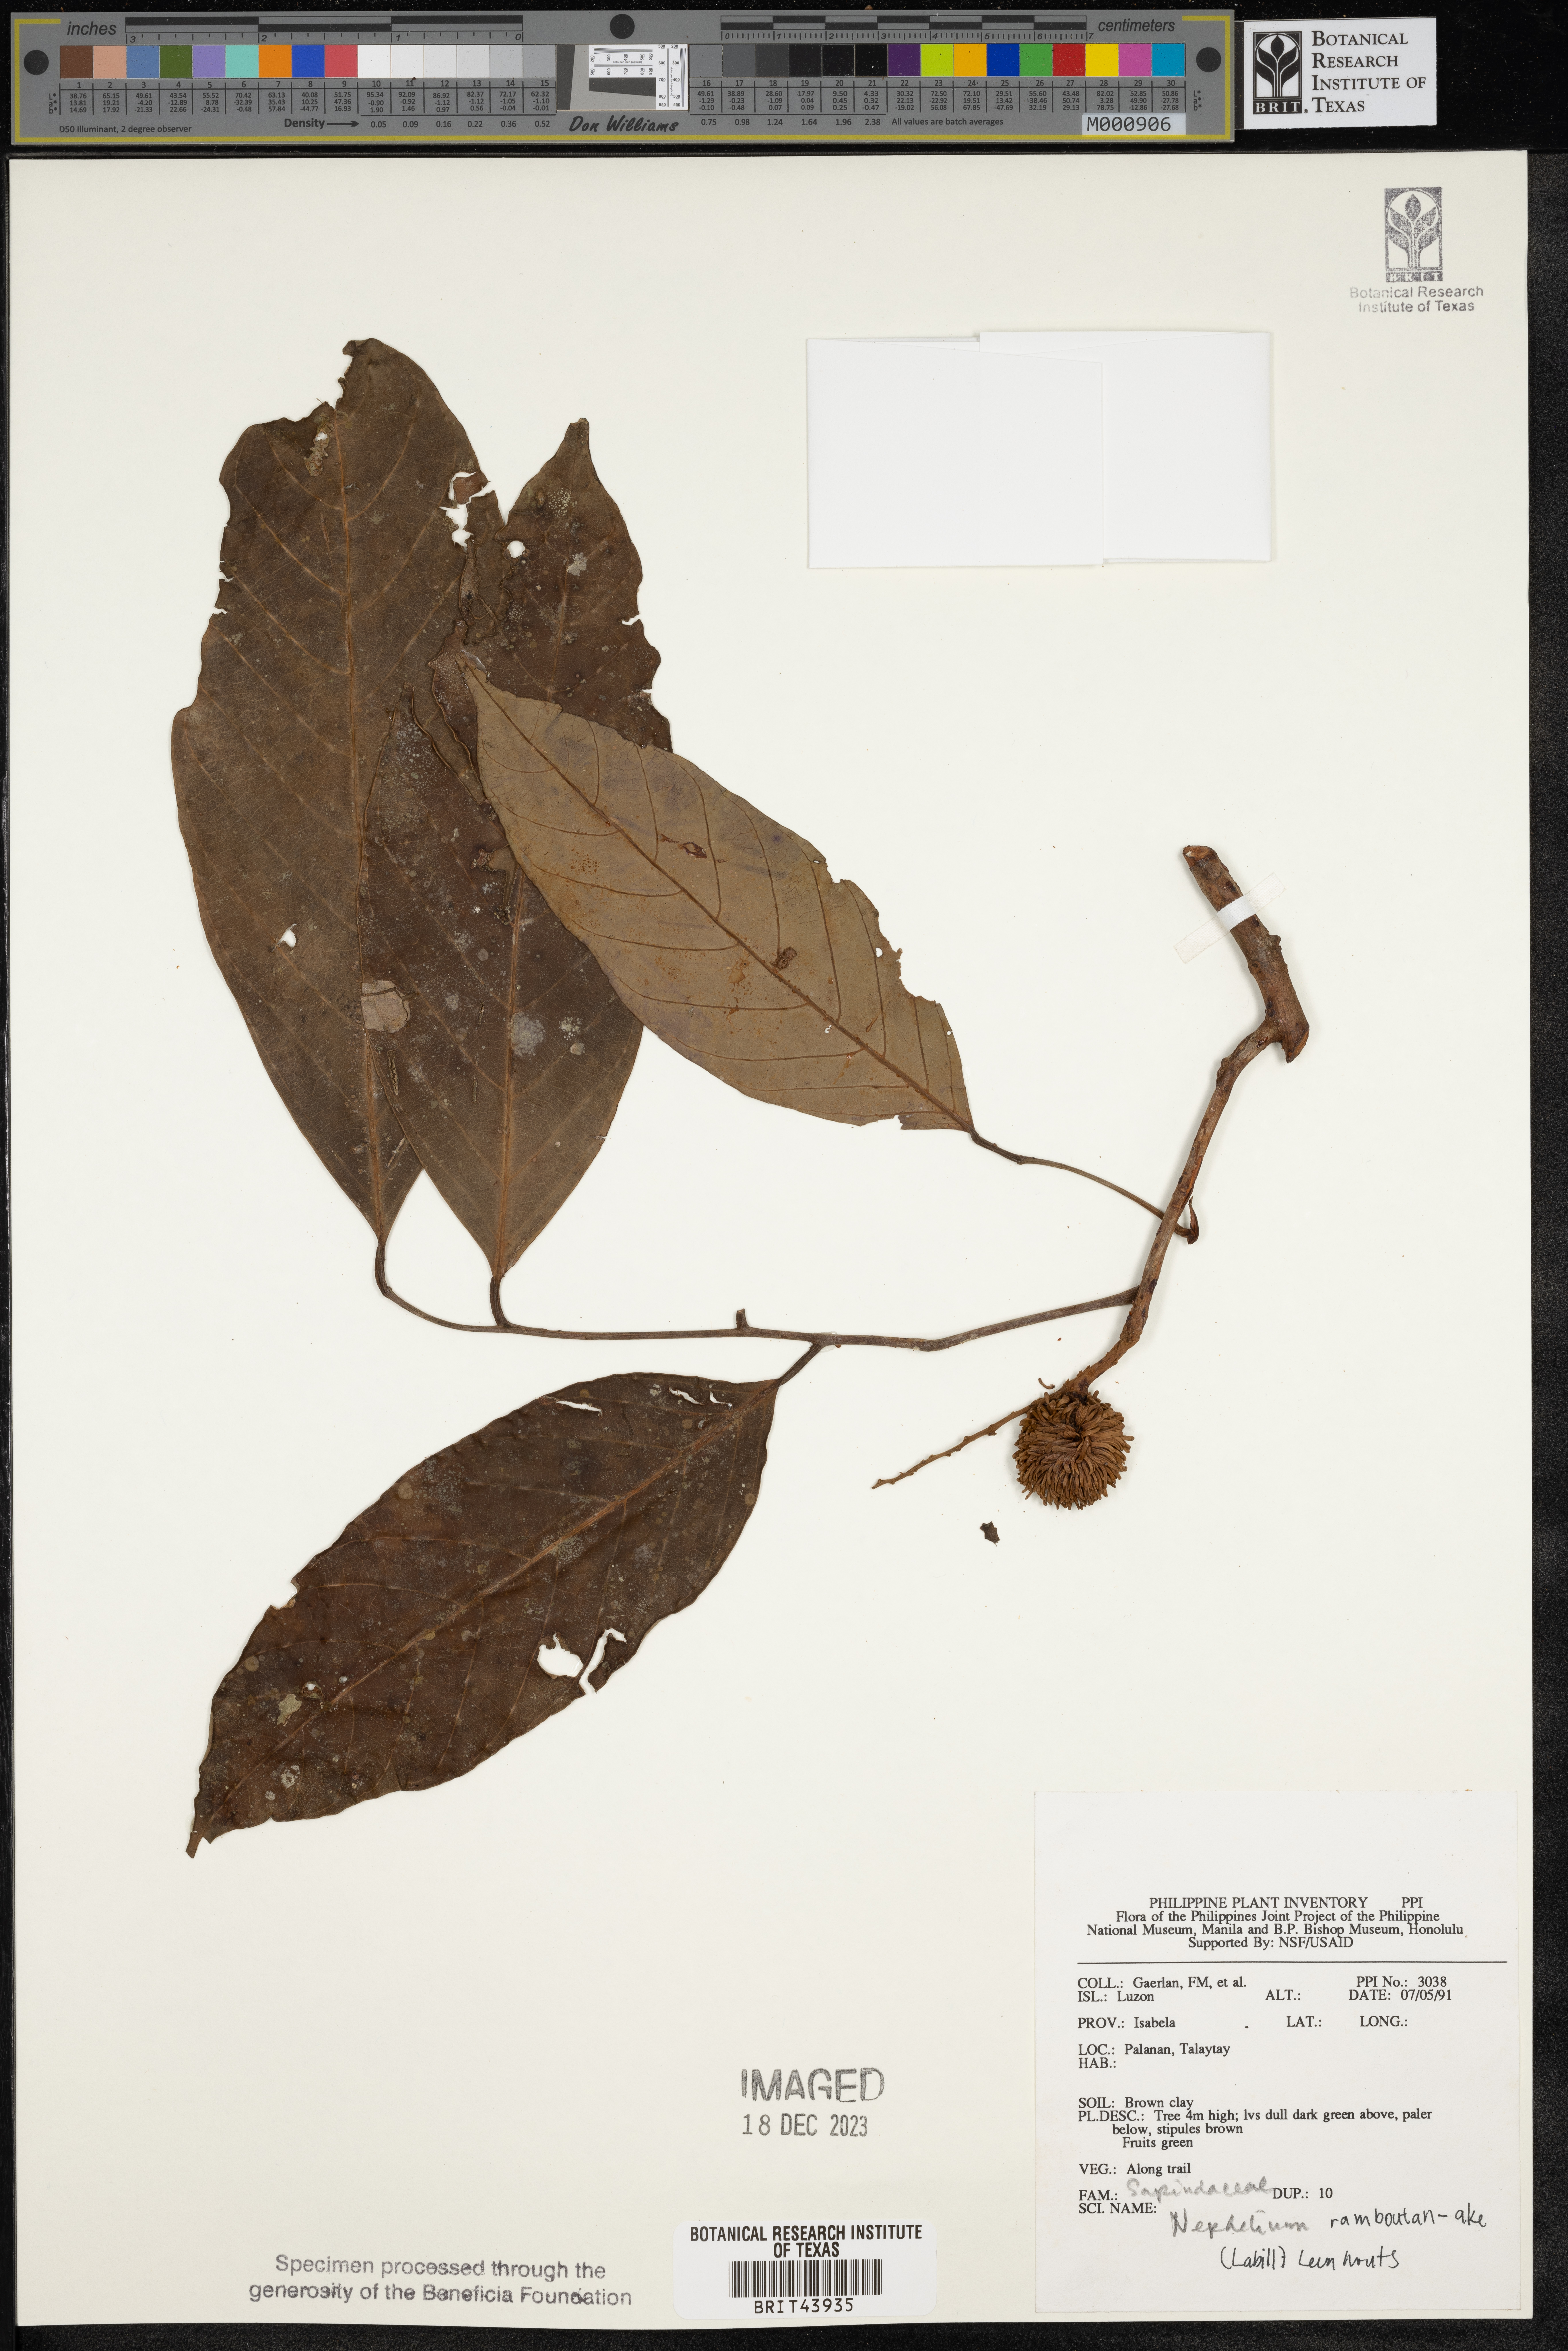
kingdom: Plantae
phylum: Tracheophyta
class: Magnoliopsida
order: Sapindales
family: Sapindaceae
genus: Nephelium
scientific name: Nephelium ramboutan-ake
